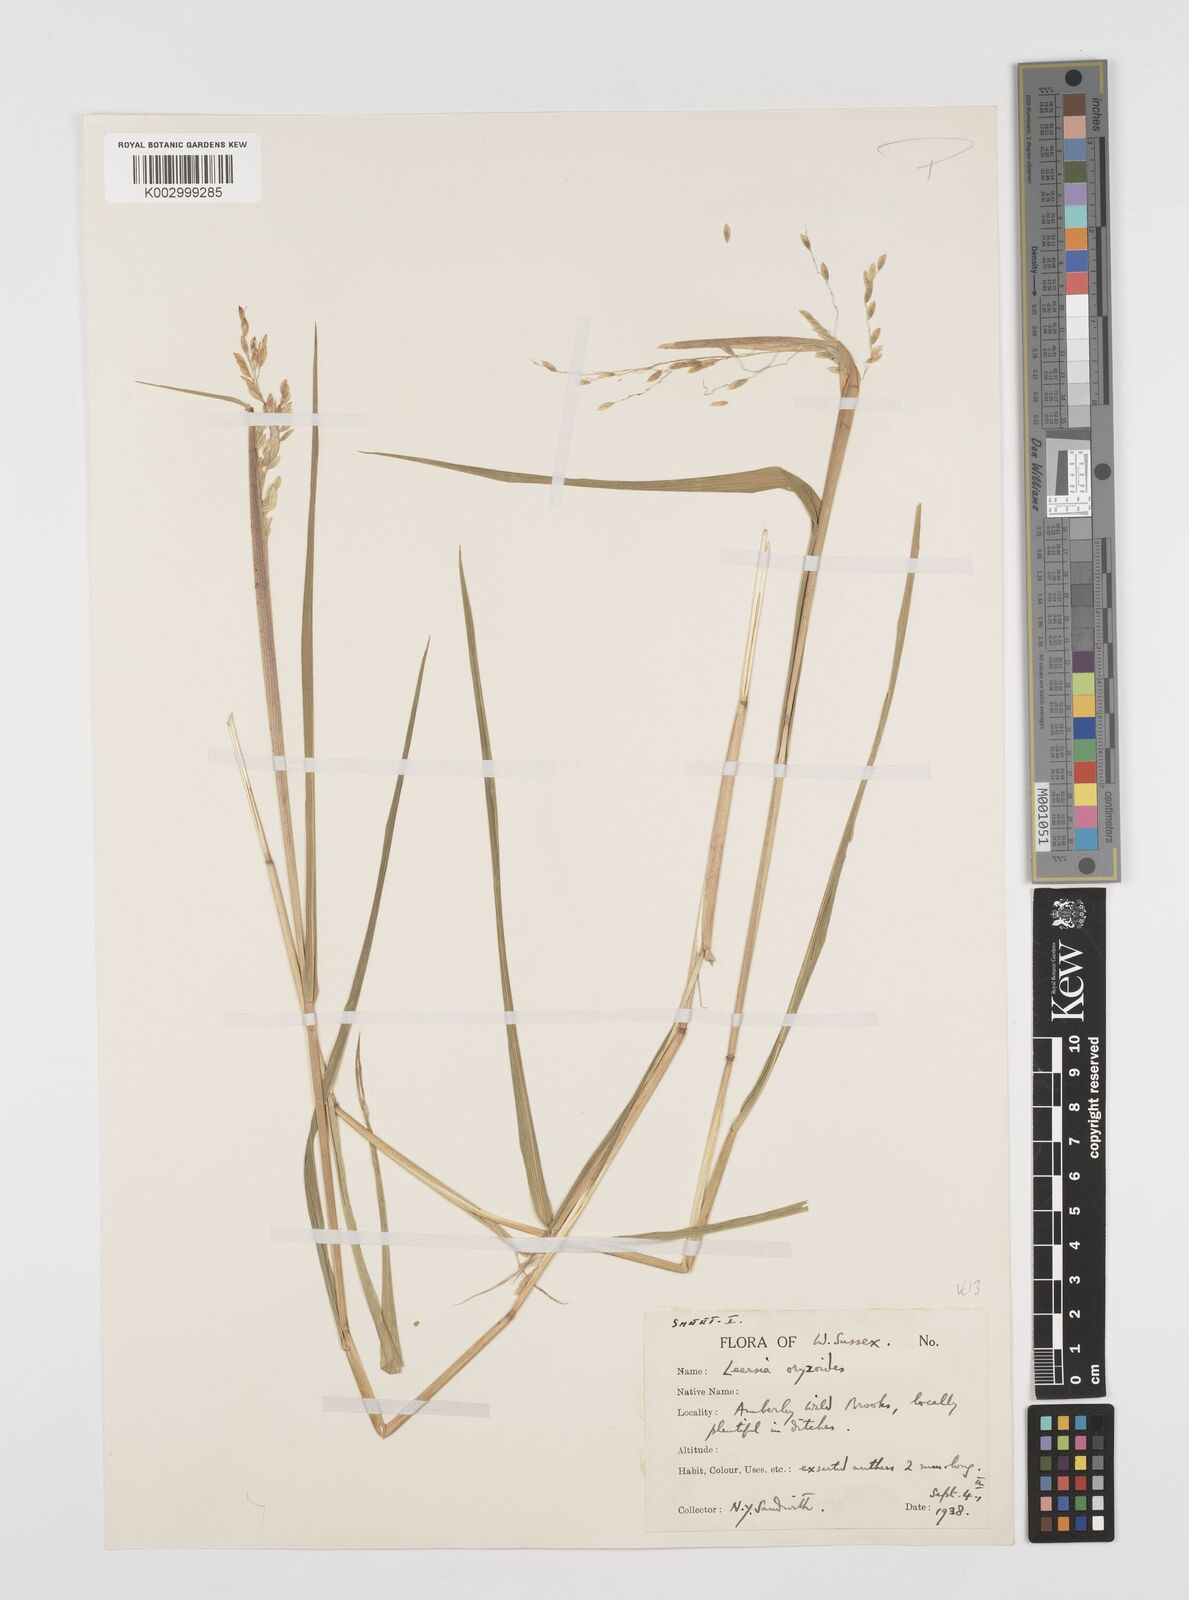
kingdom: Plantae
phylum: Tracheophyta
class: Liliopsida
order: Poales
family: Poaceae
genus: Leersia
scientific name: Leersia oryzoides
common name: Cut-grass
